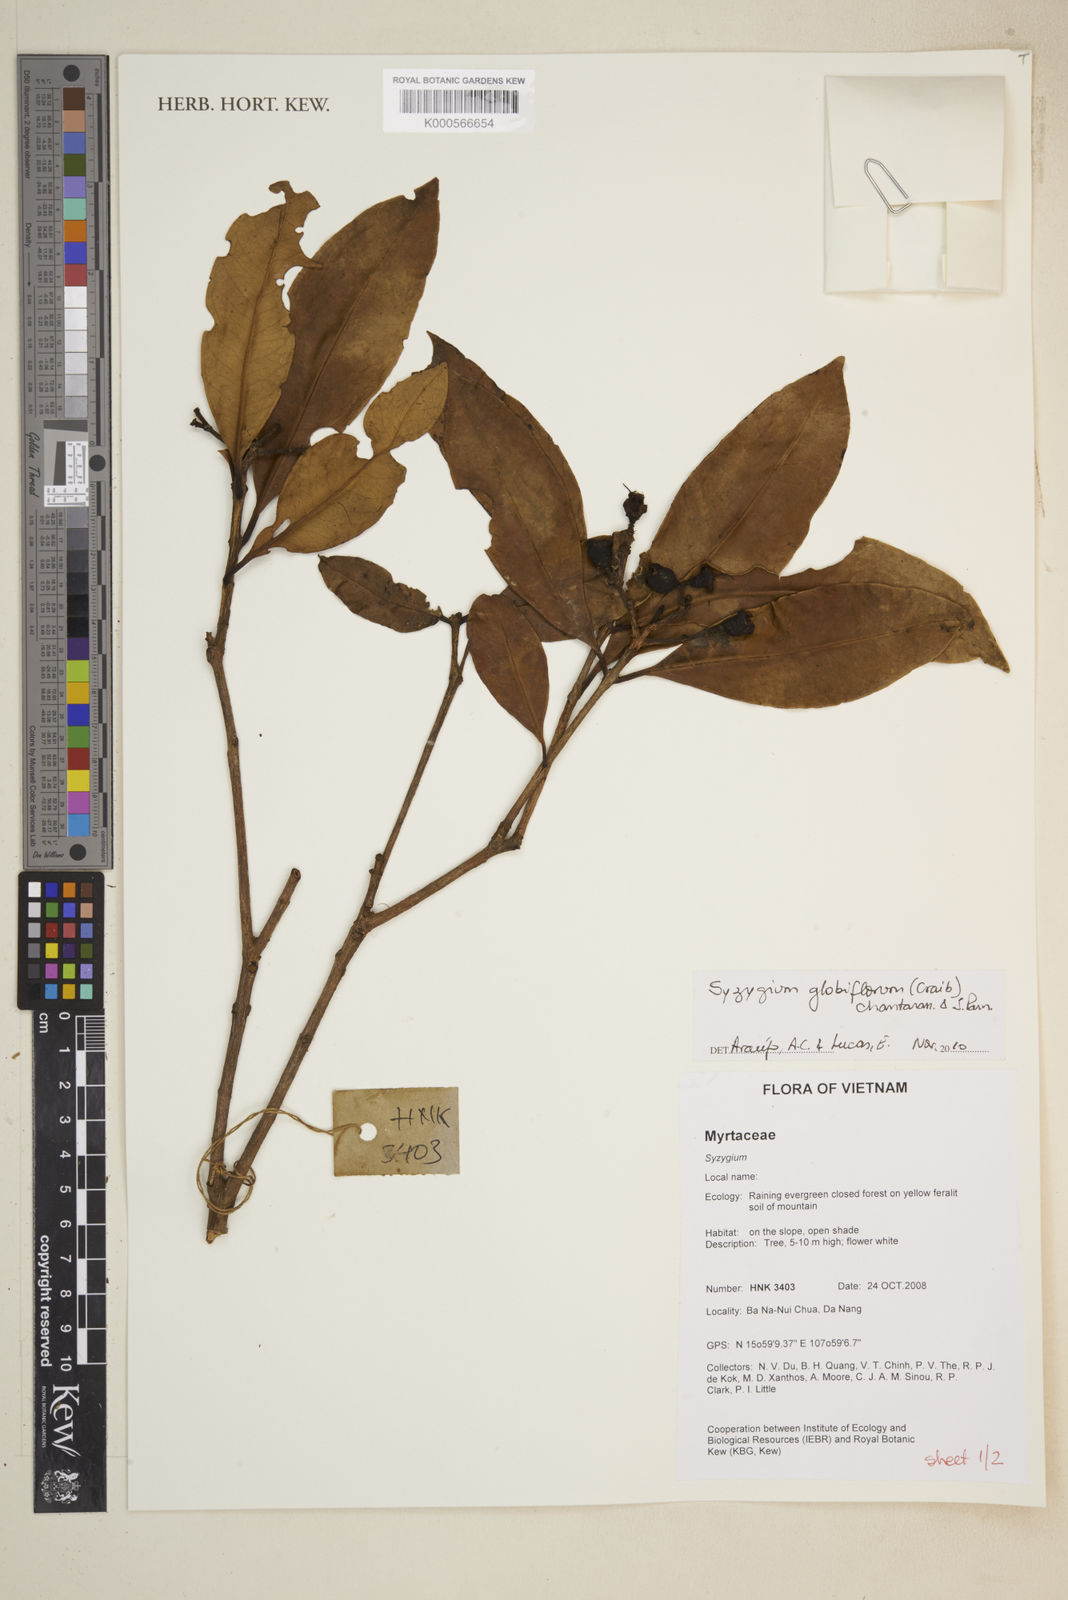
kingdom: Plantae
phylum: Tracheophyta
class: Magnoliopsida
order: Myrtales
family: Myrtaceae
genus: Syzygium
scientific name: Syzygium globiflorum
